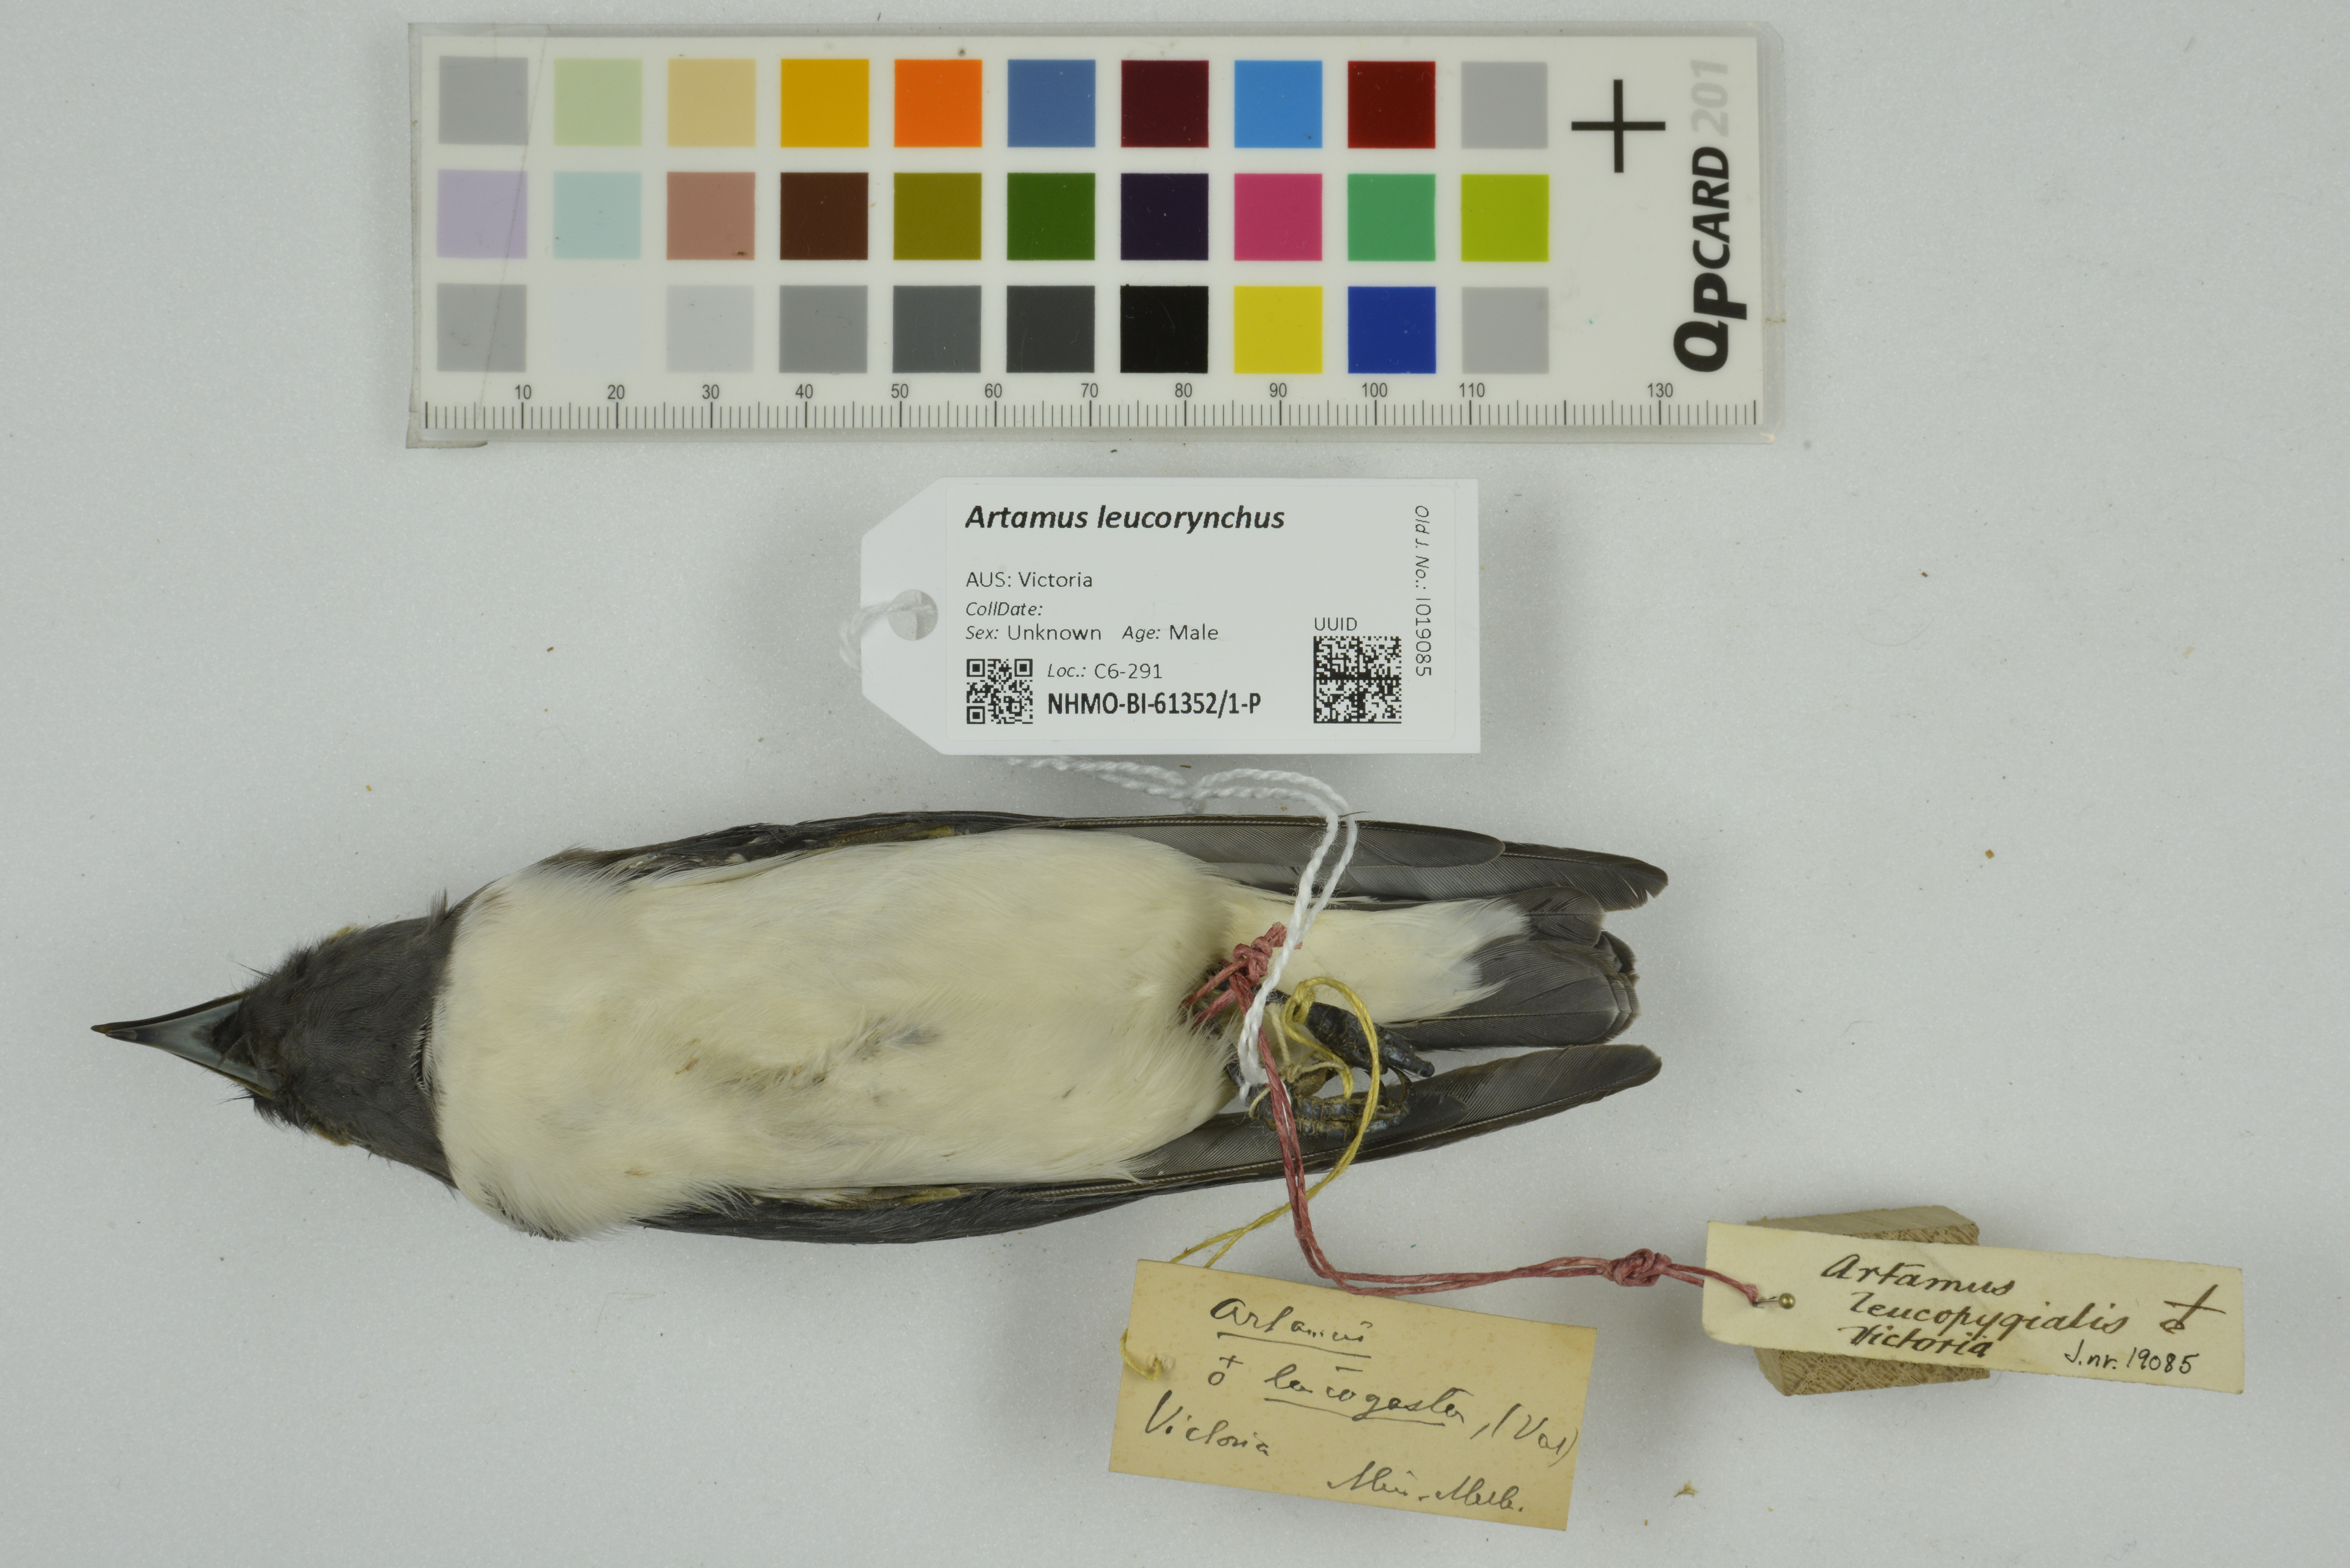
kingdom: Animalia
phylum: Chordata
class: Aves
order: Passeriformes
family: Artamidae
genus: Artamus
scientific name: Artamus leucoryn
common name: White-breasted woodswallow
